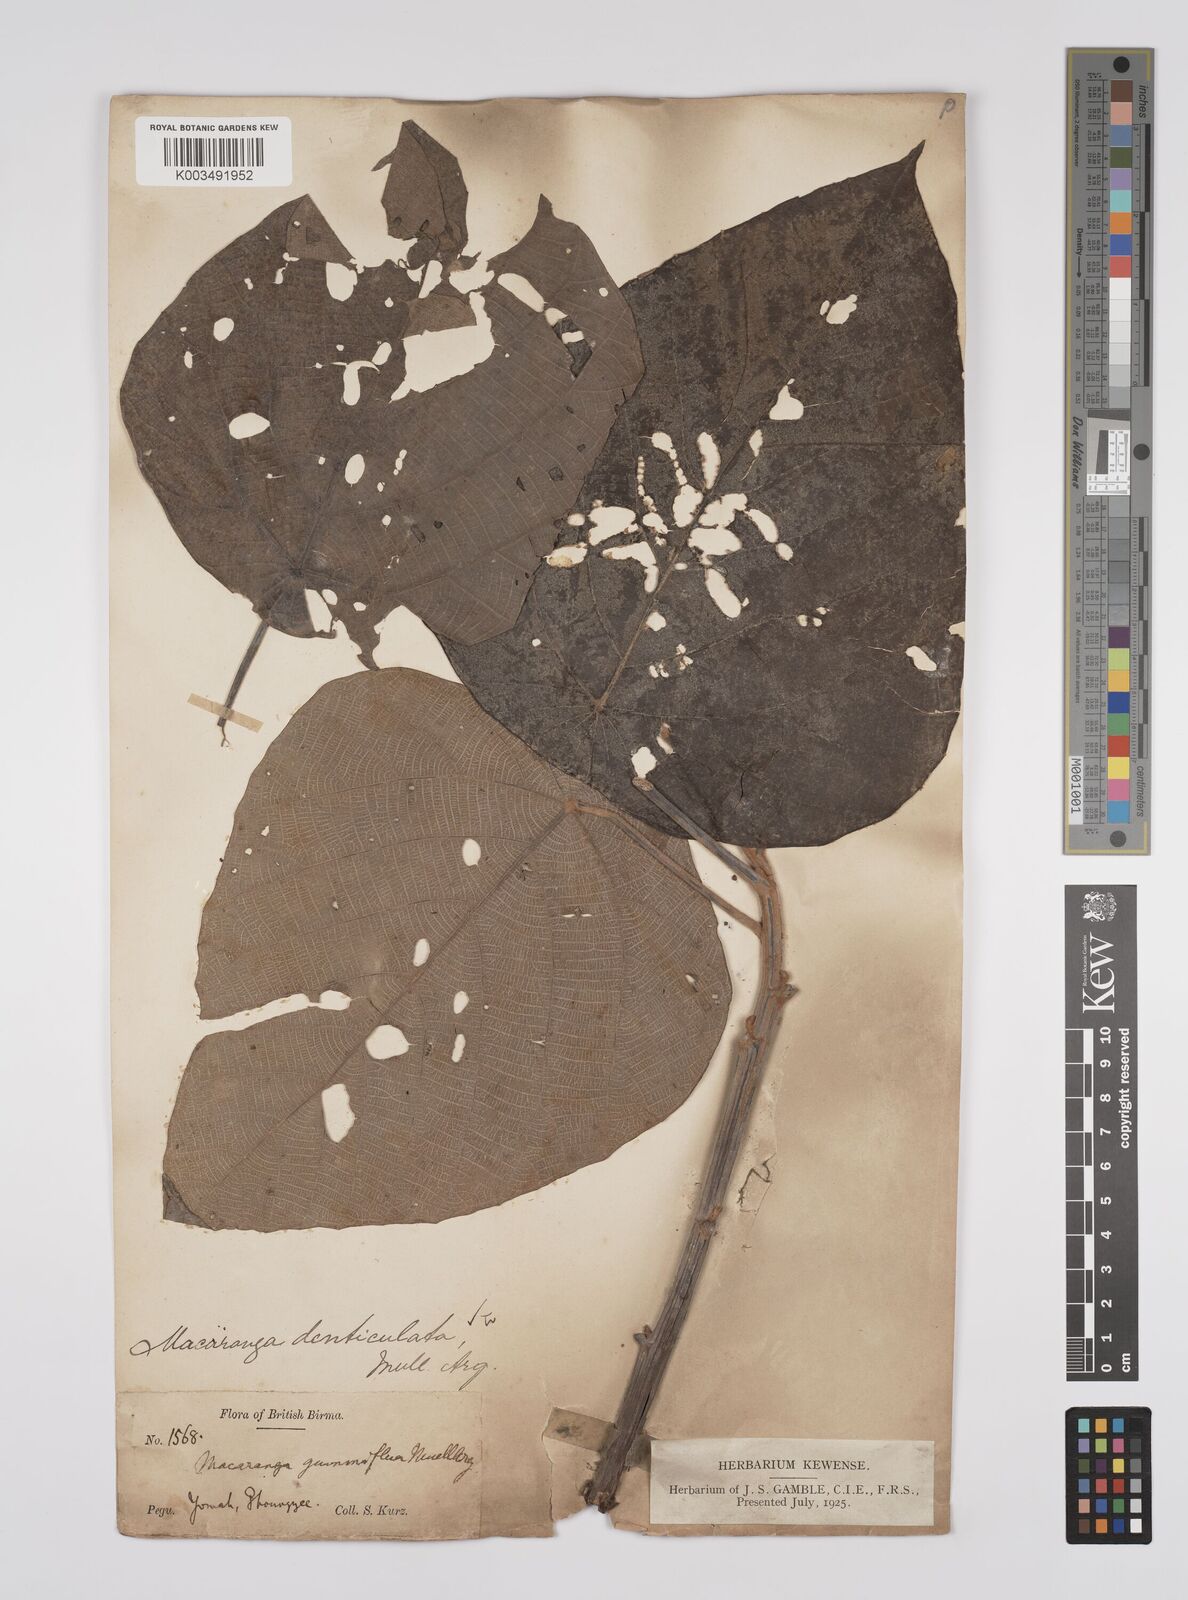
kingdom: Plantae
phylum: Tracheophyta
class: Magnoliopsida
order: Malpighiales
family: Euphorbiaceae
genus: Macaranga
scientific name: Macaranga denticulata
